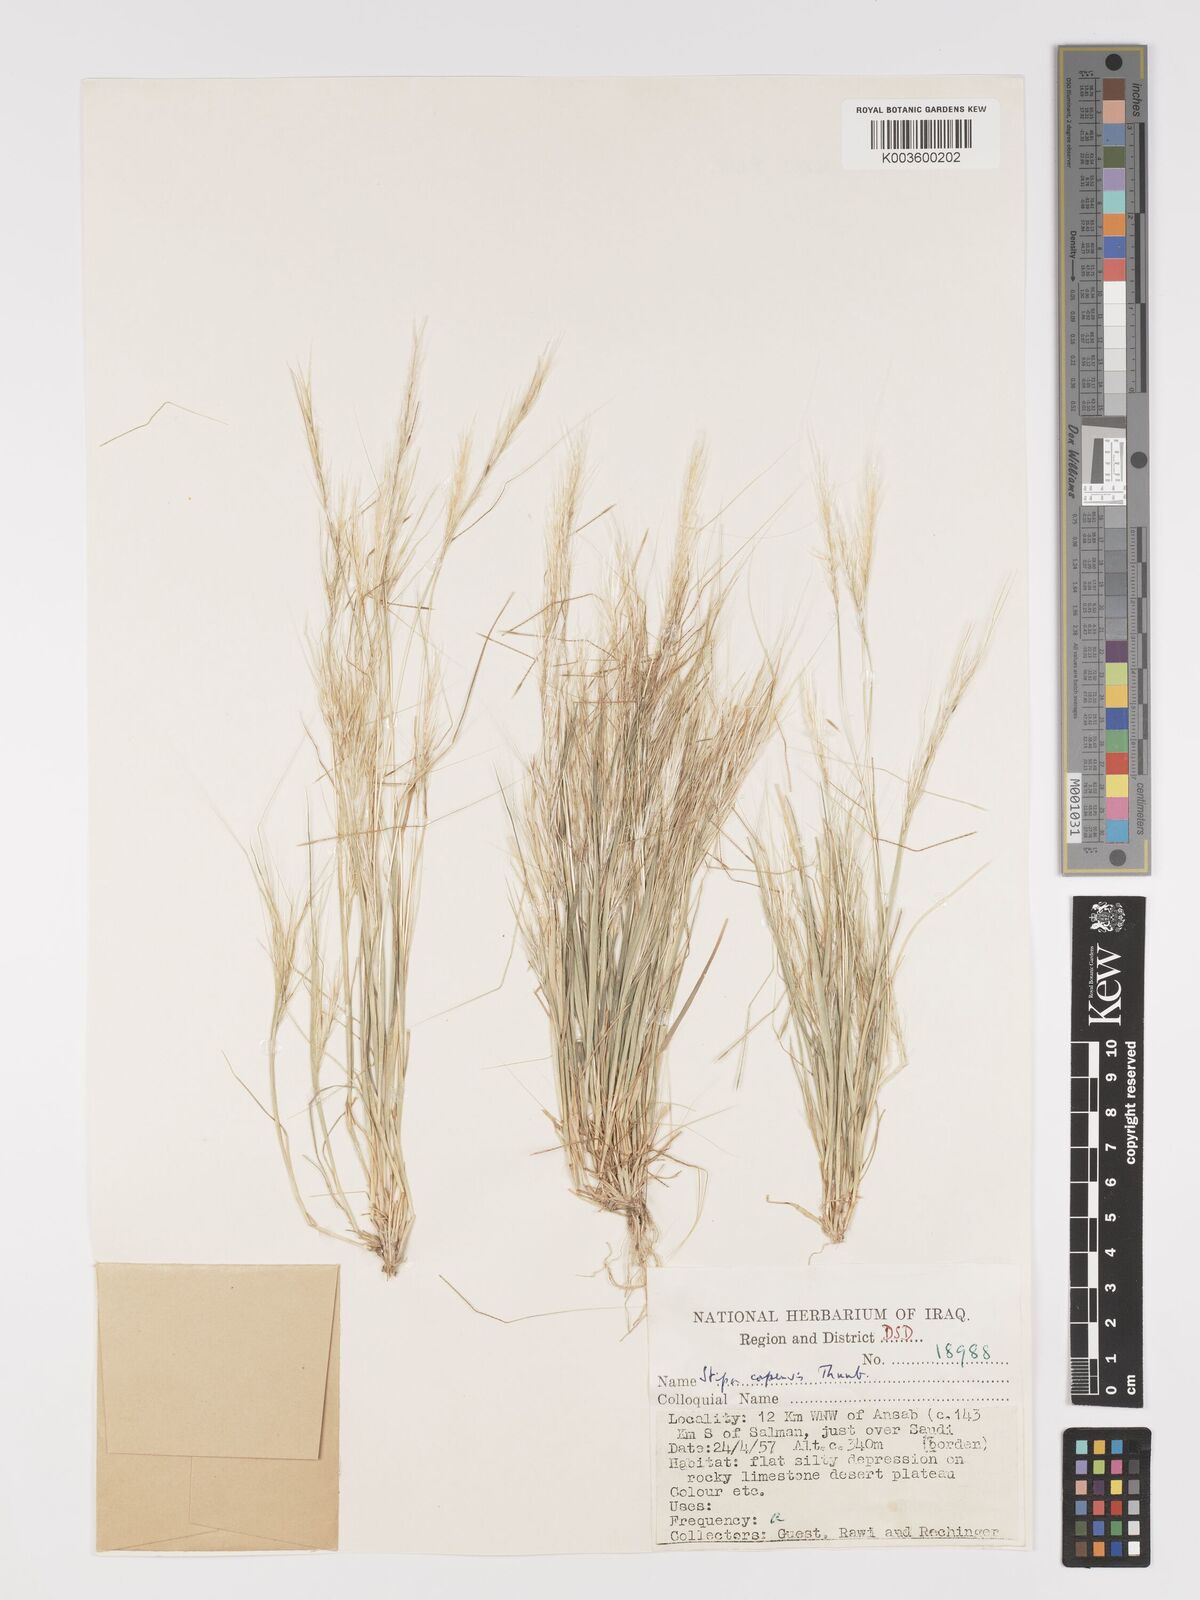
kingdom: Plantae
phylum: Tracheophyta
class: Liliopsida
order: Poales
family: Poaceae
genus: Stipellula
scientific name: Stipellula capensis
